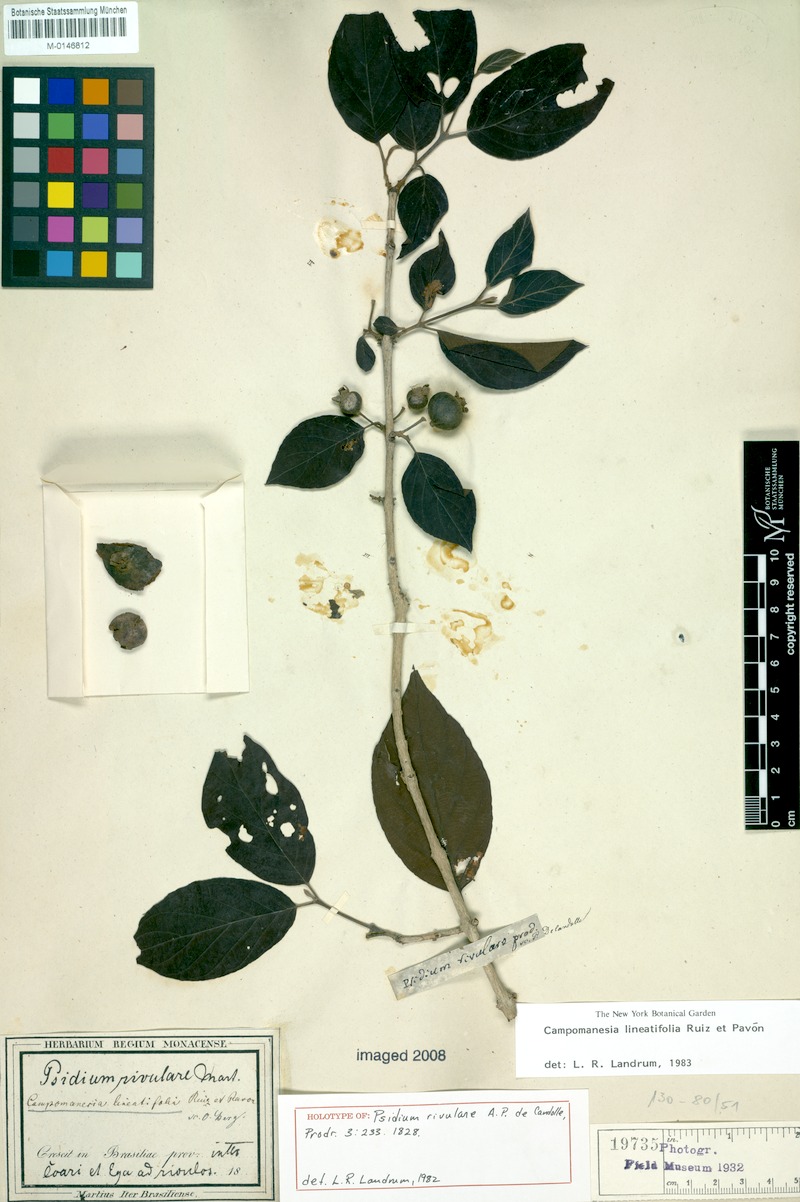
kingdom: Plantae
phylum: Tracheophyta
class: Magnoliopsida
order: Myrtales
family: Myrtaceae
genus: Campomanesia
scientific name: Campomanesia lineatifolia
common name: Perfume guava
